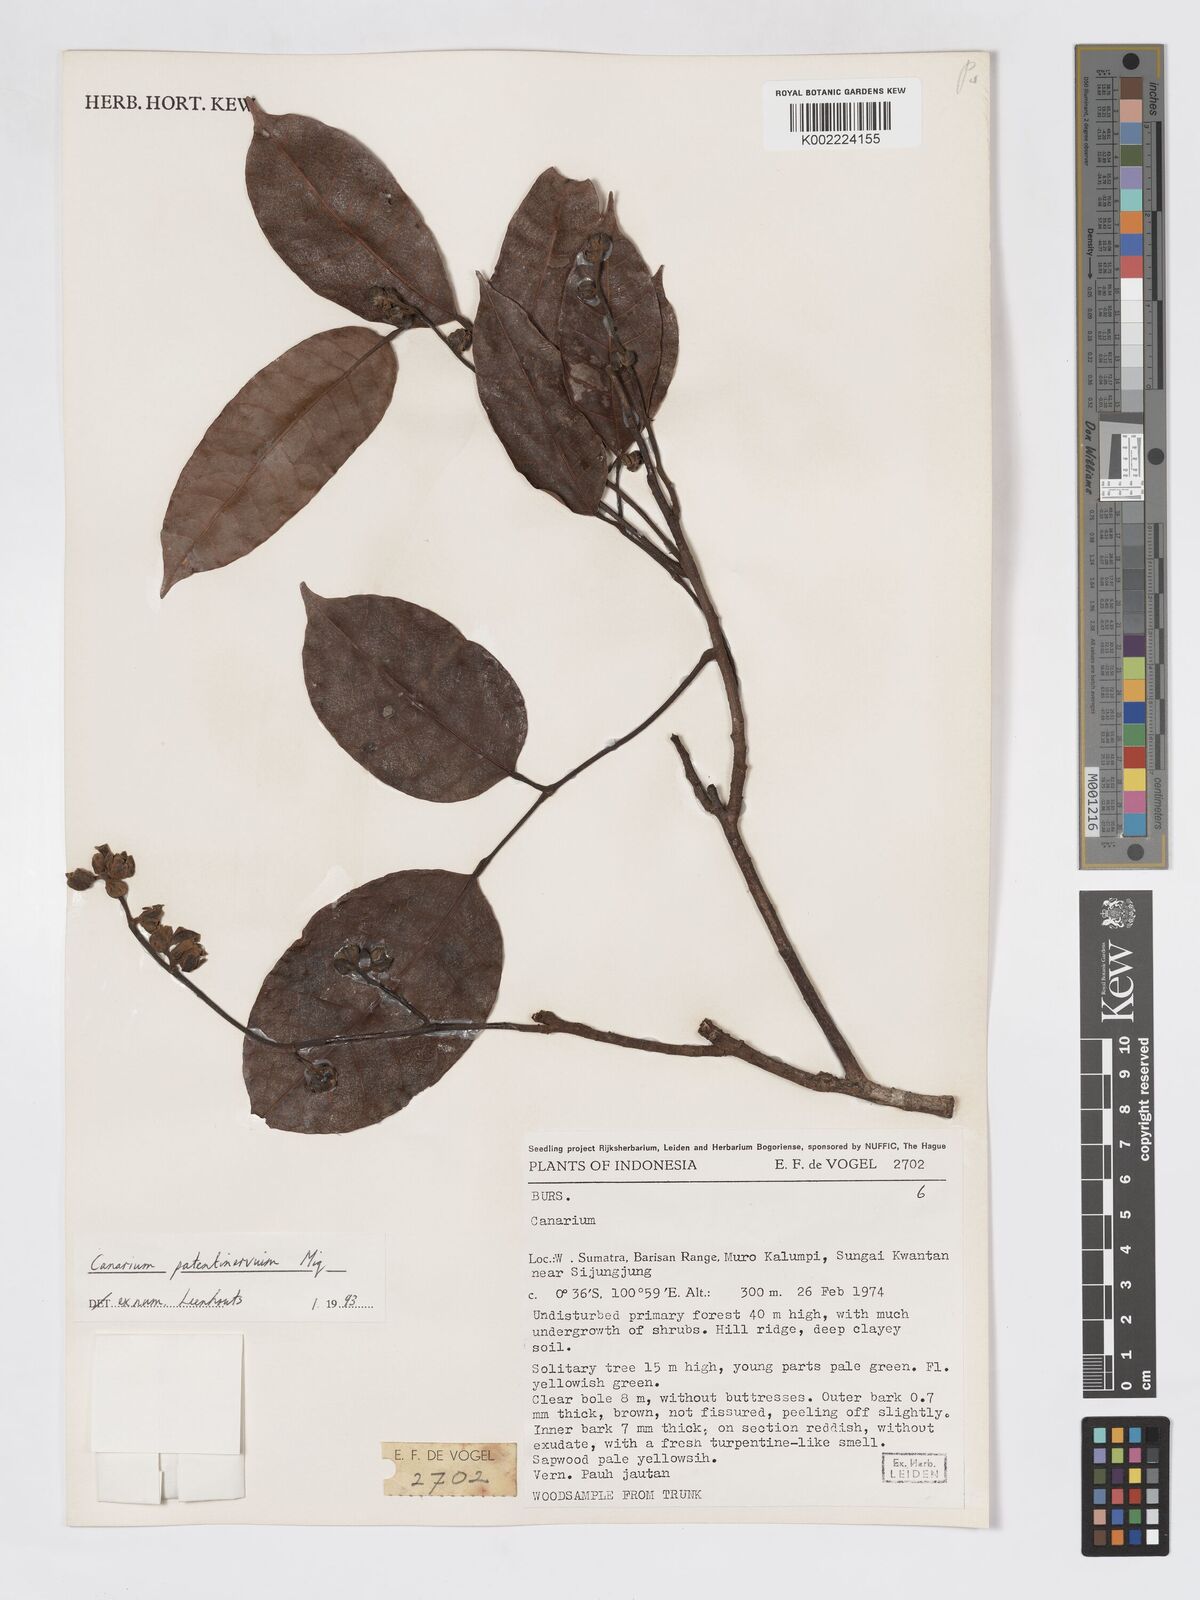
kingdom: Plantae
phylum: Tracheophyta
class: Magnoliopsida
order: Sapindales
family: Burseraceae
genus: Canarium
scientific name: Canarium patentinervium
